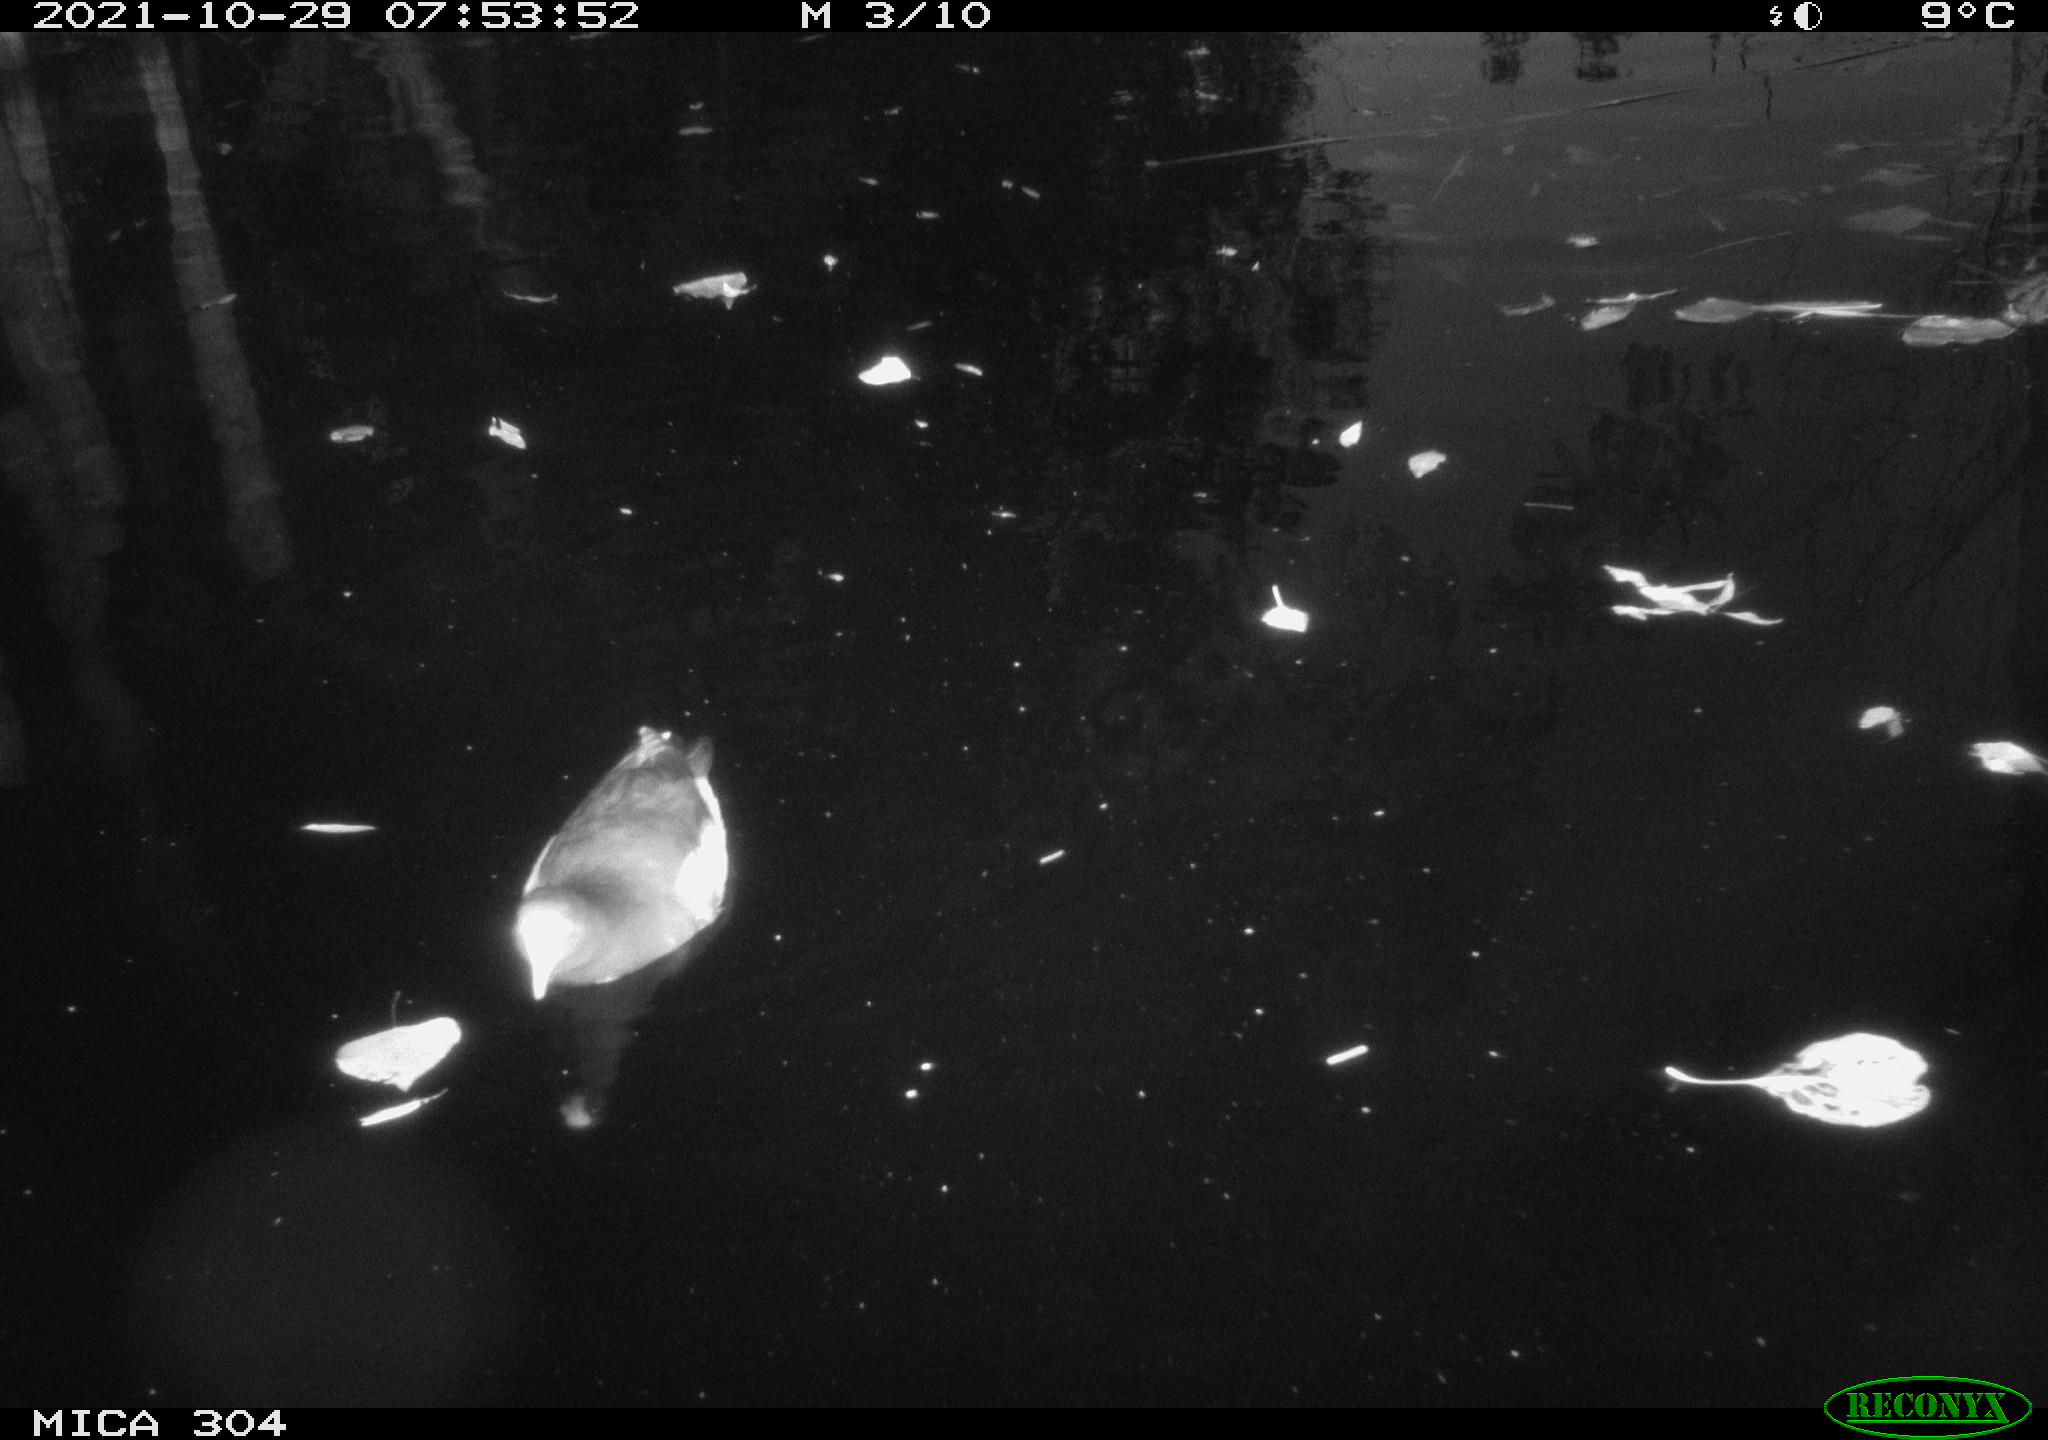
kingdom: Animalia
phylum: Chordata
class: Aves
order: Gruiformes
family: Rallidae
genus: Gallinula
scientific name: Gallinula chloropus
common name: Common moorhen
